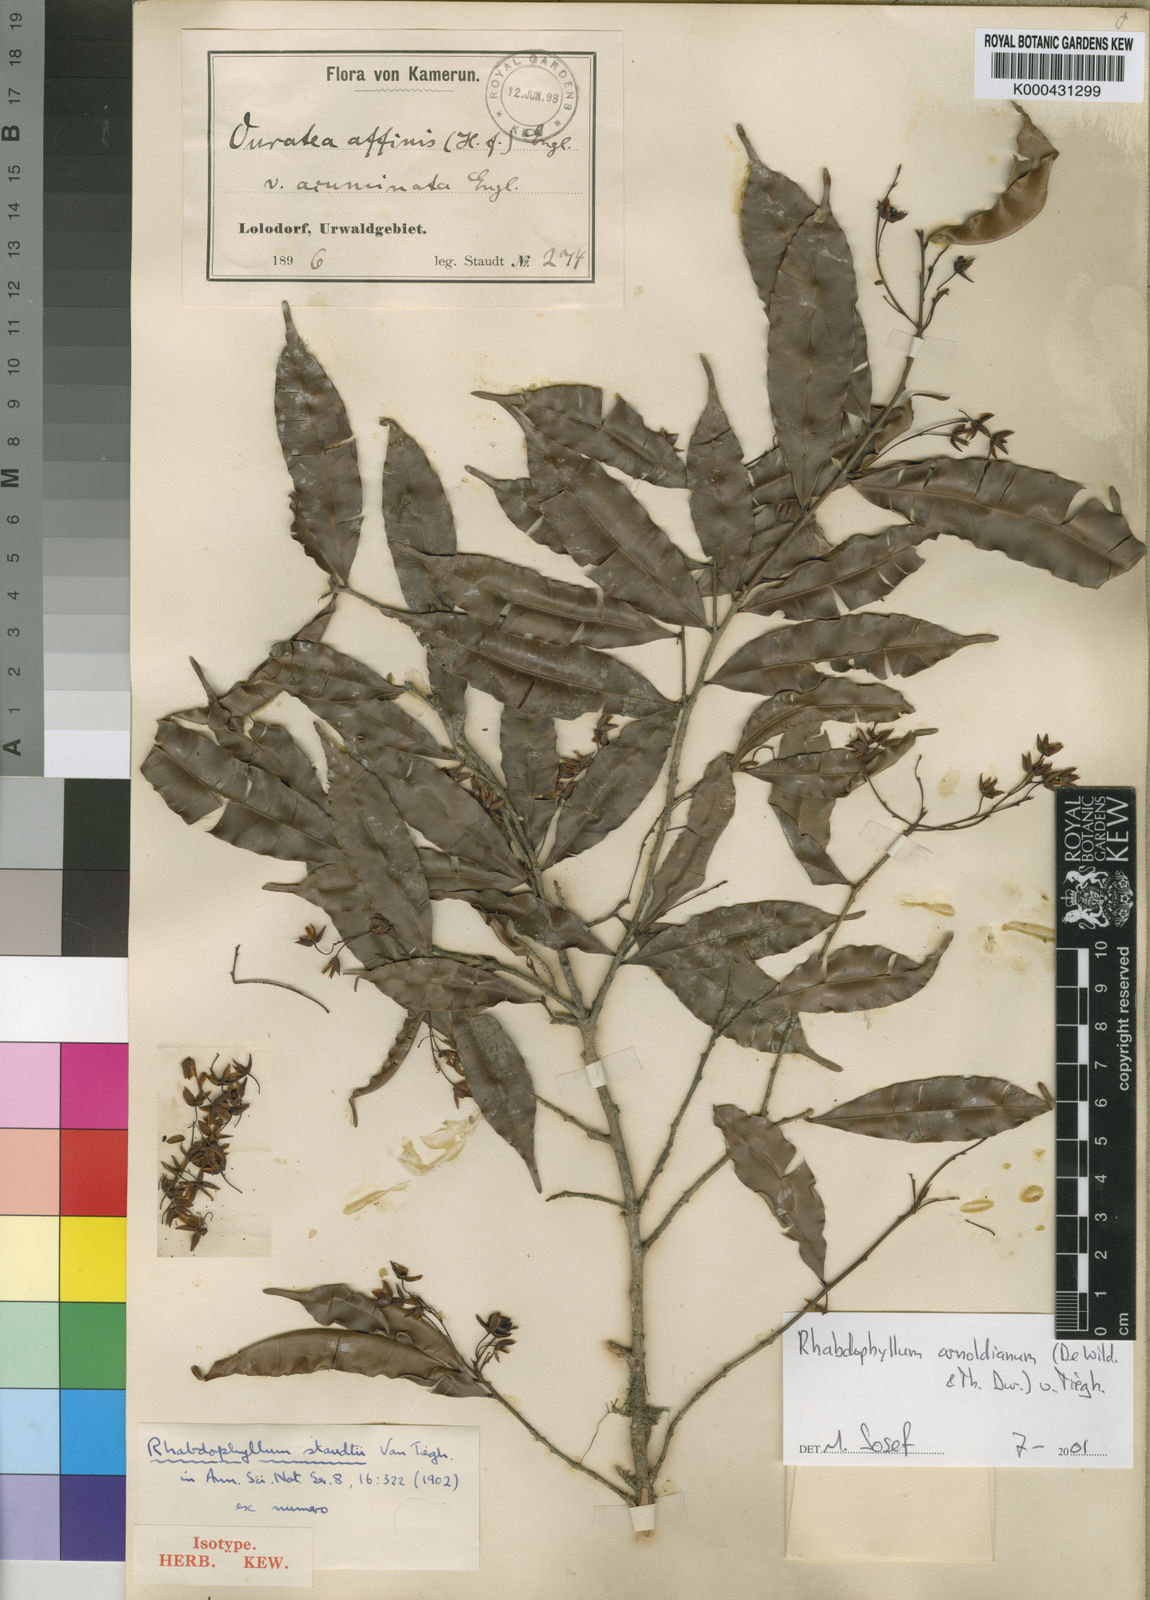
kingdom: Plantae
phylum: Tracheophyta
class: Magnoliopsida
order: Malpighiales
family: Ochnaceae
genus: Rhabdophyllum
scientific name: Rhabdophyllum
